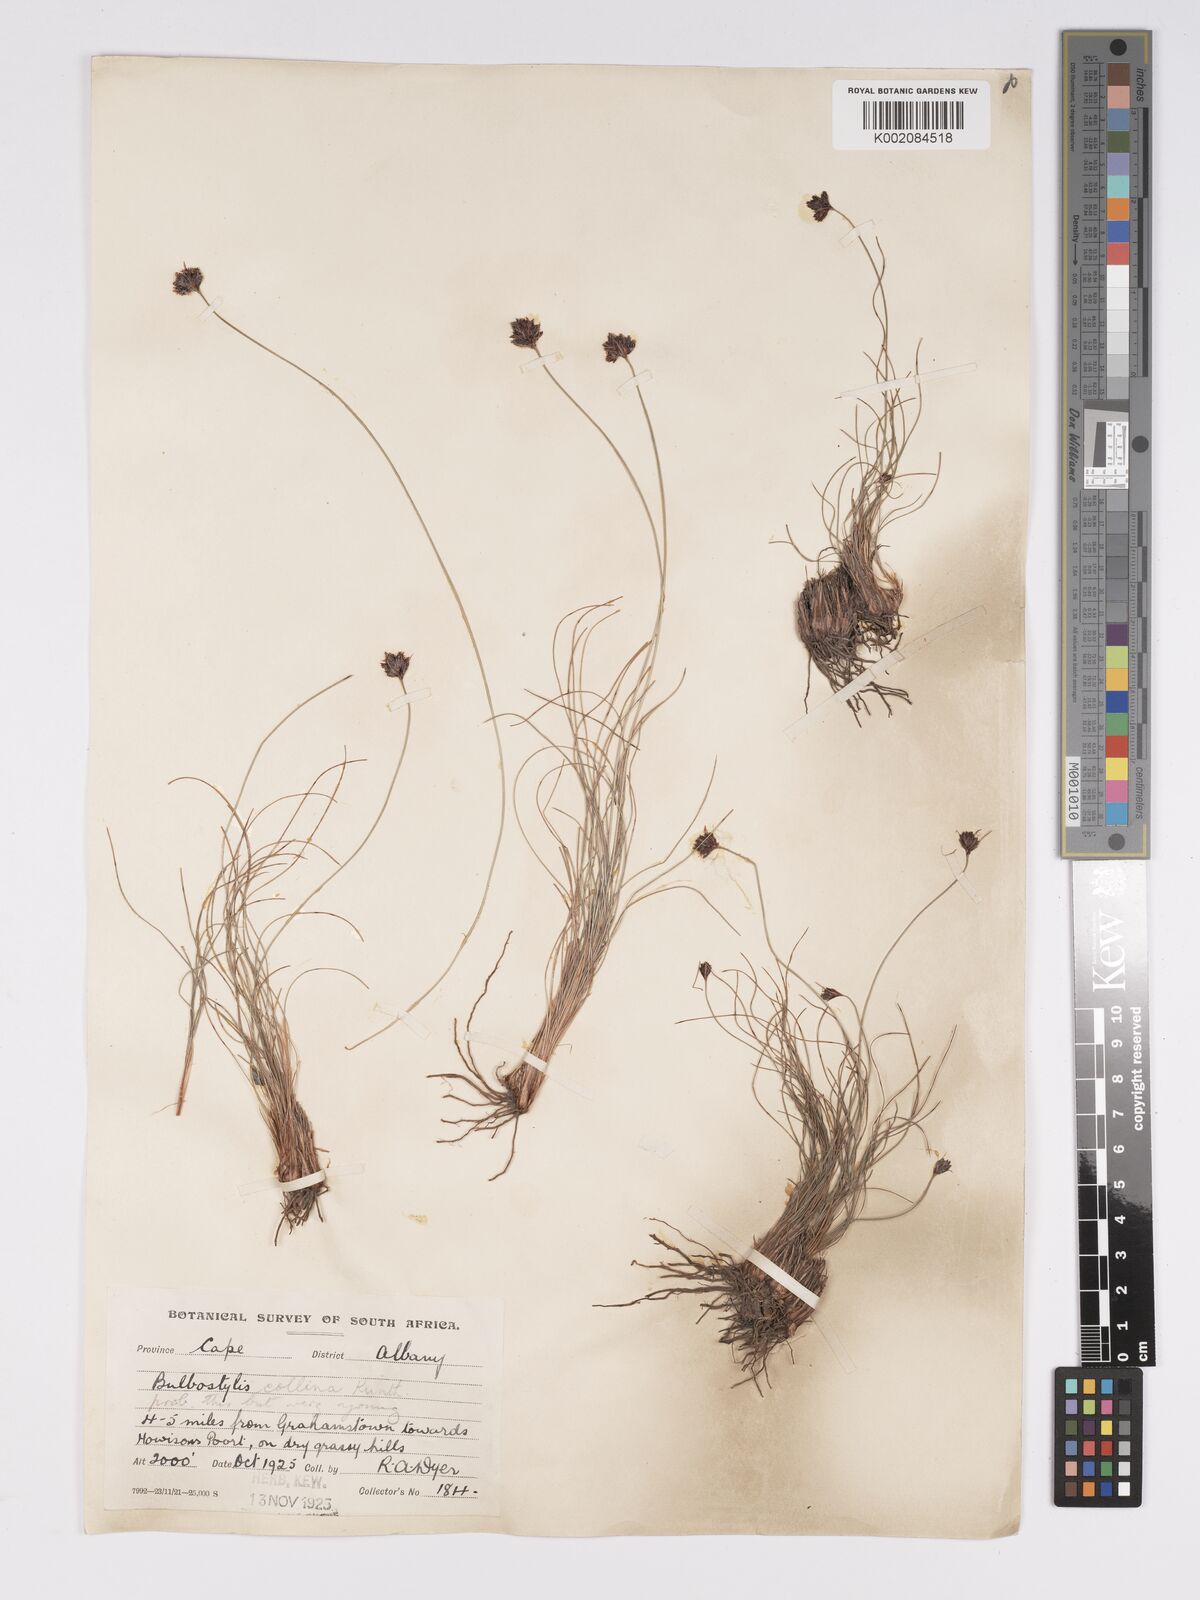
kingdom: Plantae
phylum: Tracheophyta
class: Liliopsida
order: Poales
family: Cyperaceae
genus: Bulbostylis
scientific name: Bulbostylis contexta
